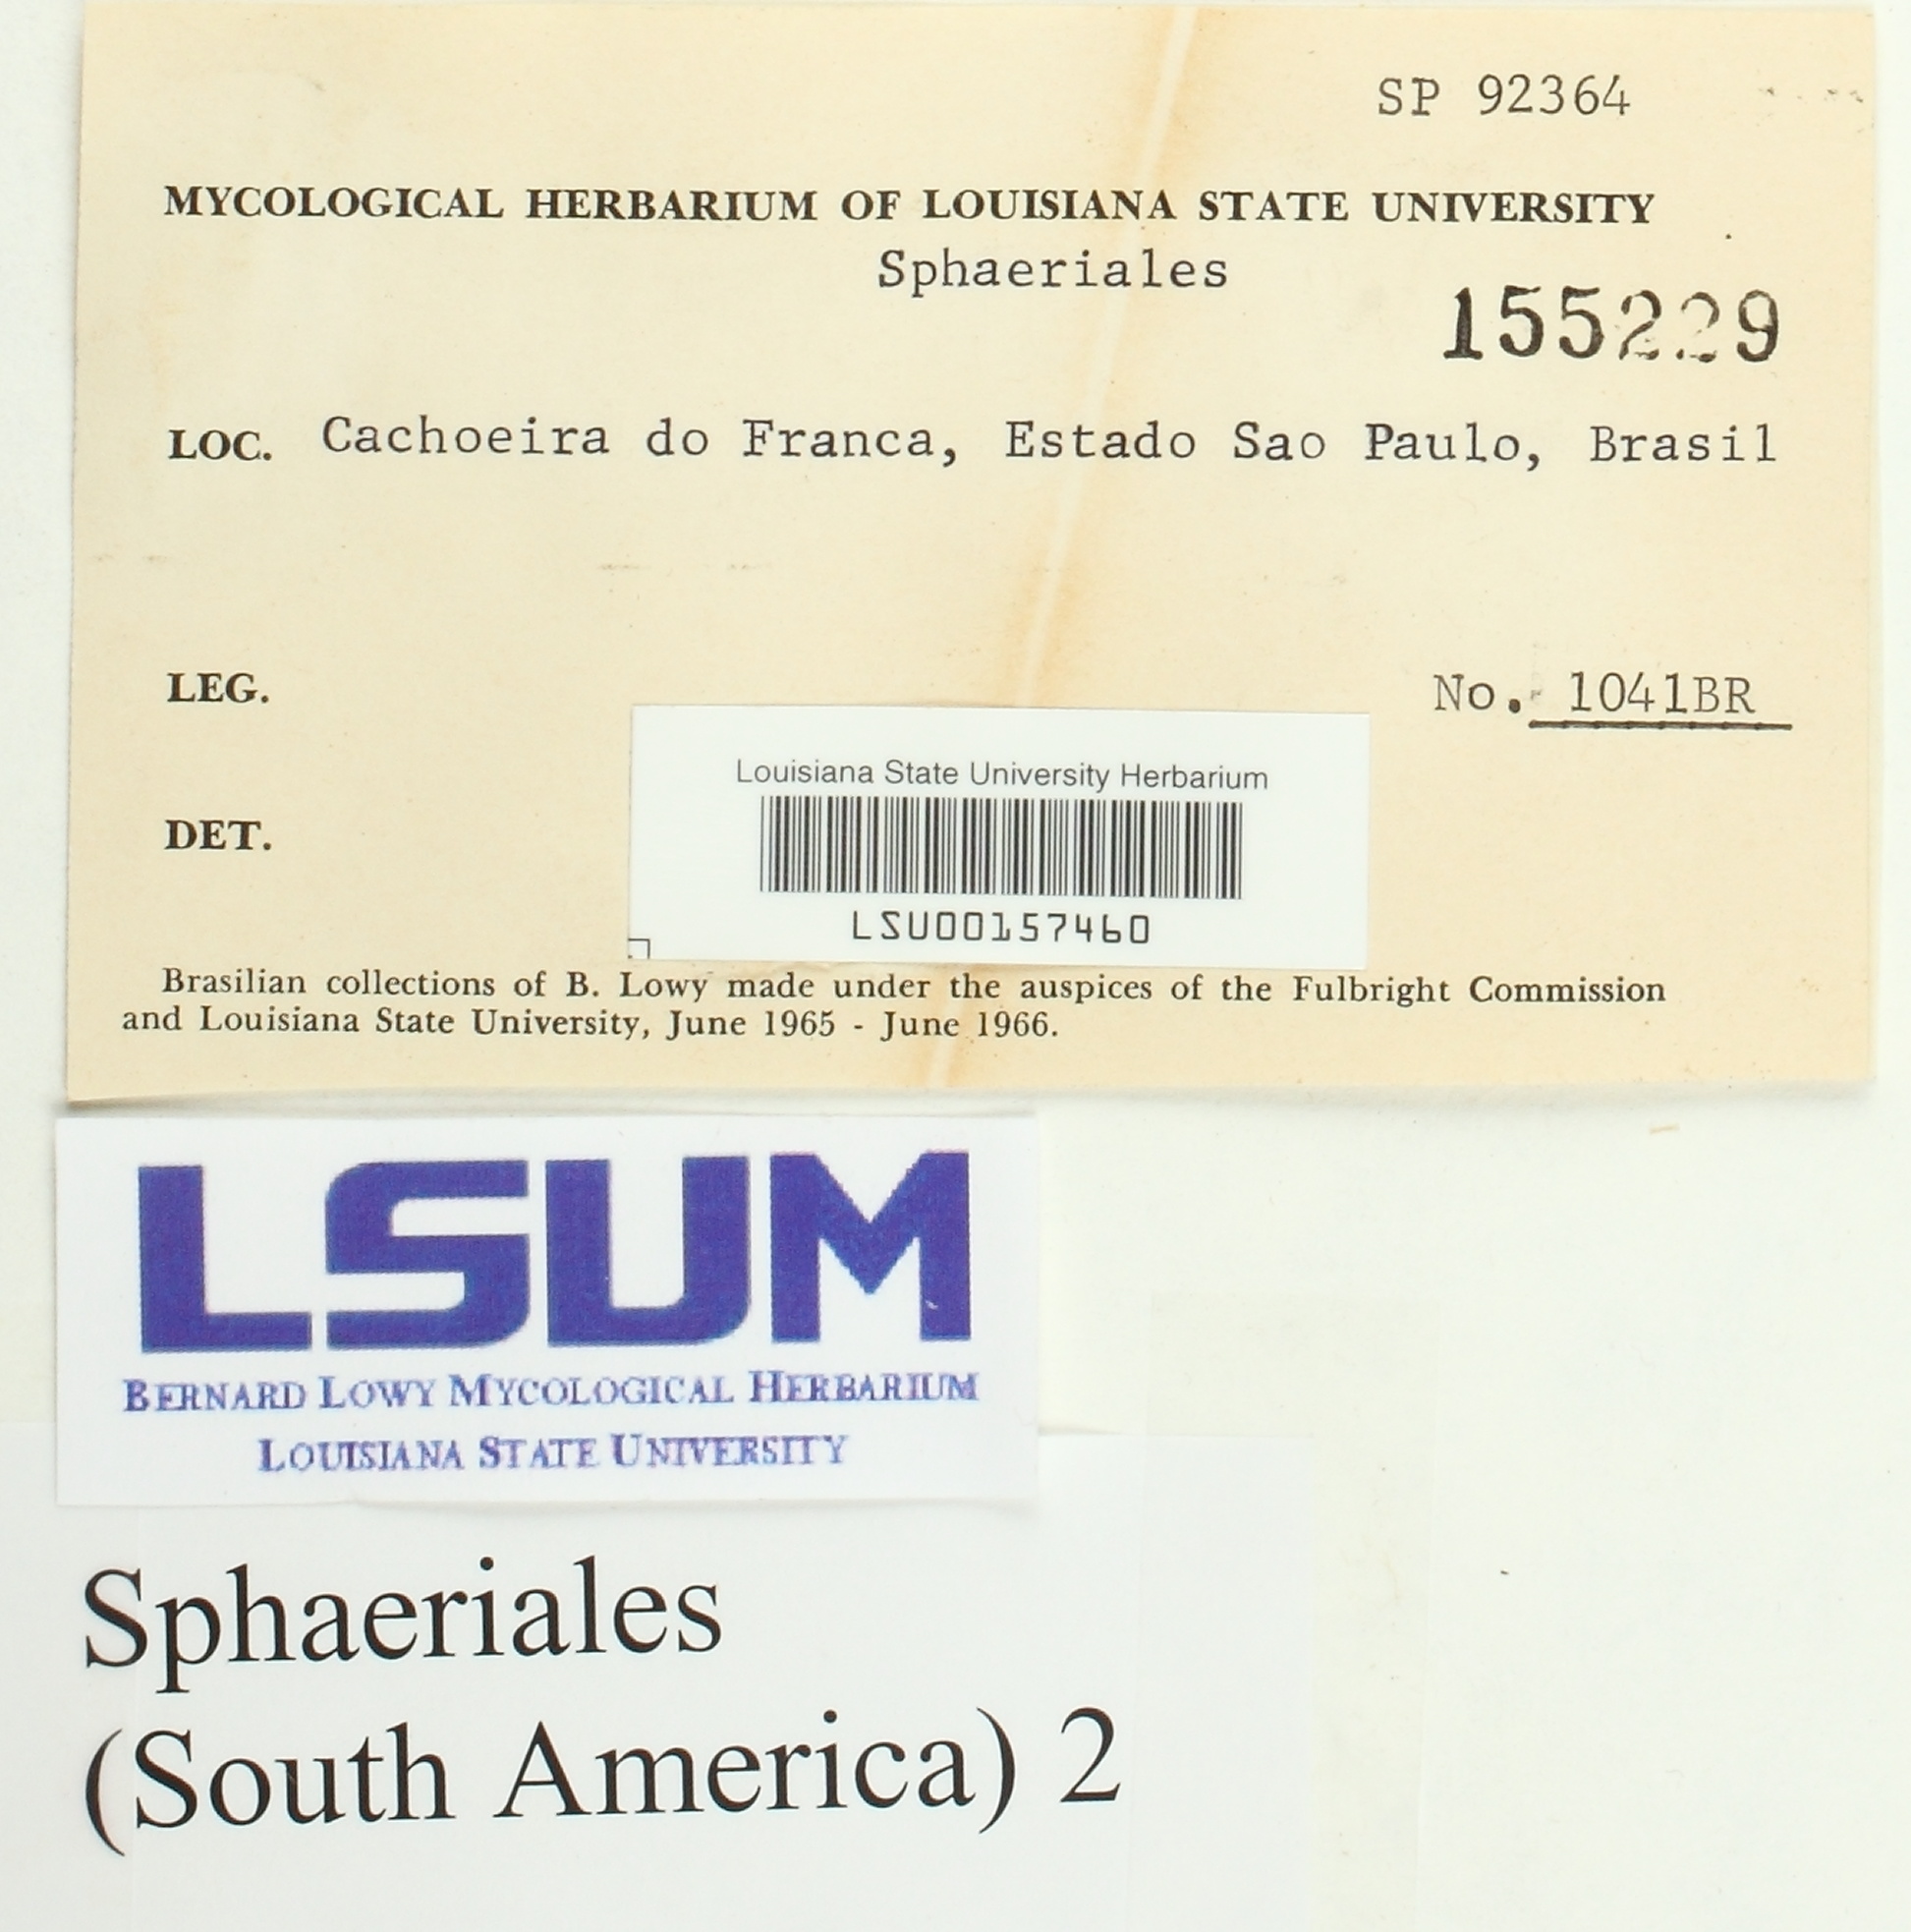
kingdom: Fungi
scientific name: Fungi
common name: Fungi
